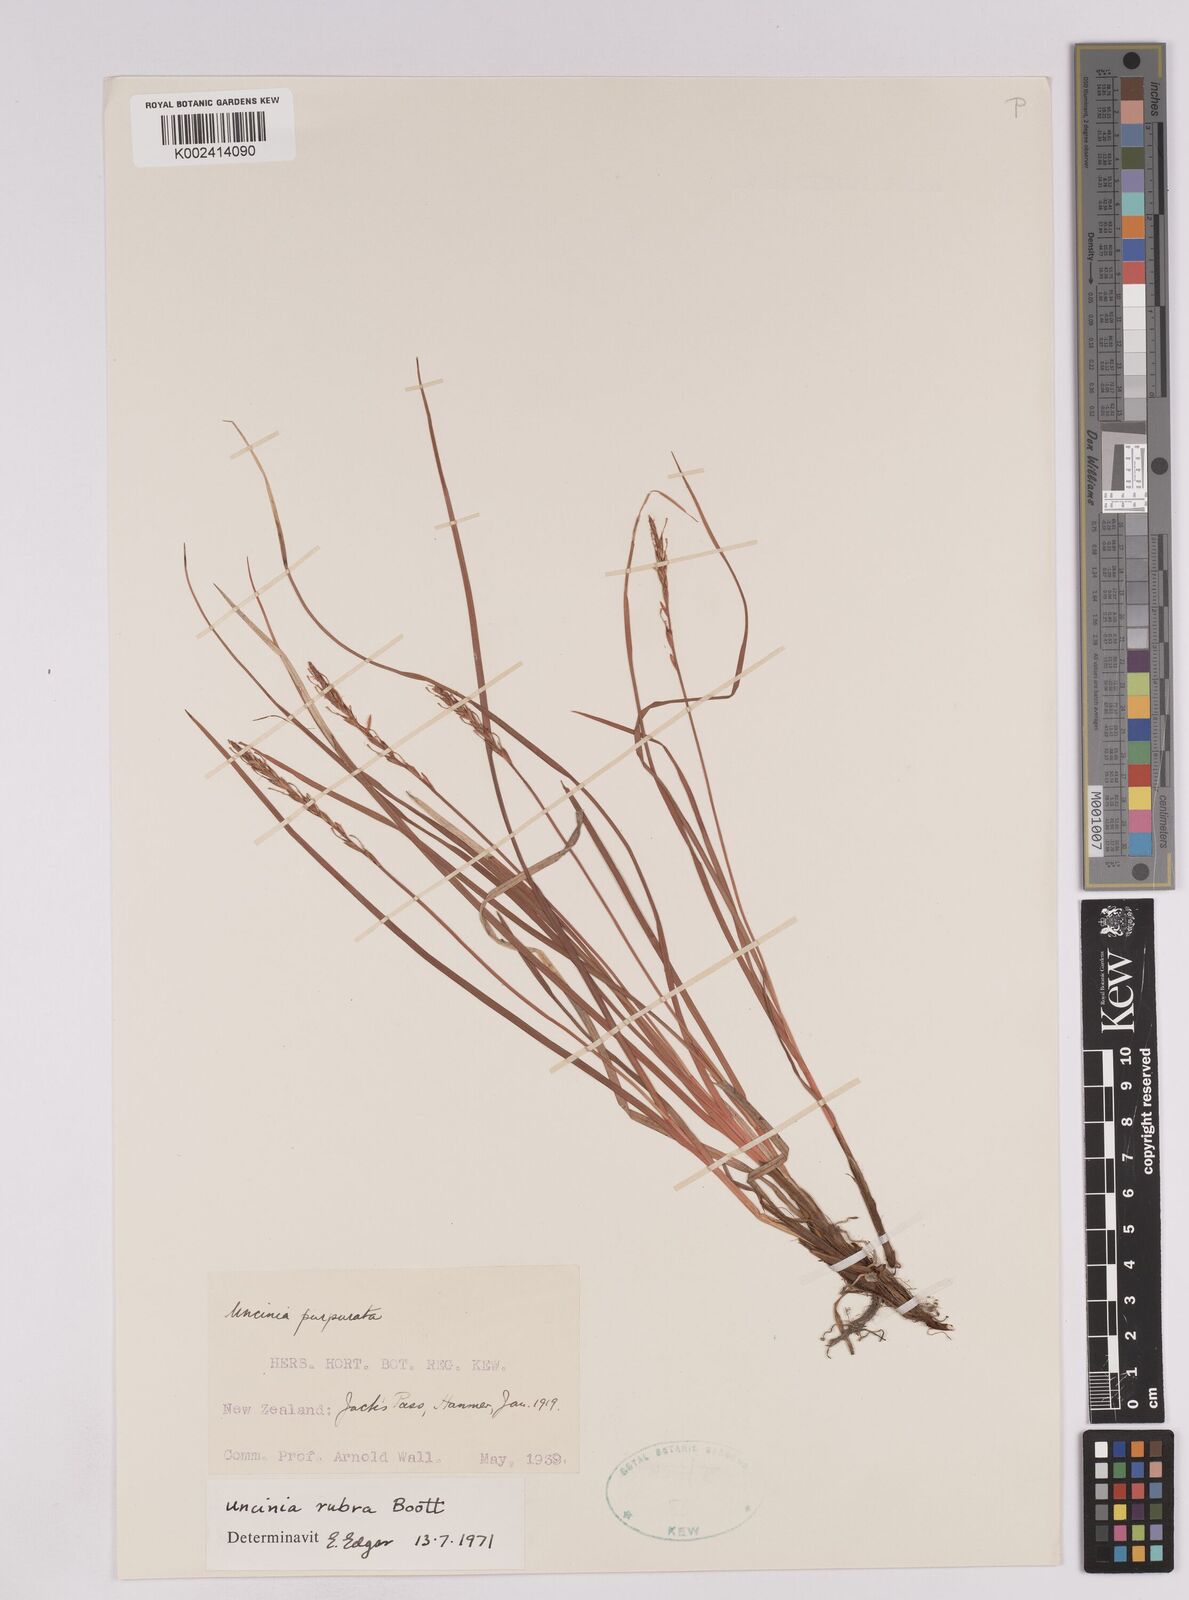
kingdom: Plantae
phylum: Tracheophyta
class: Liliopsida
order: Poales
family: Cyperaceae
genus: Carex
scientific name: Carex punicea
